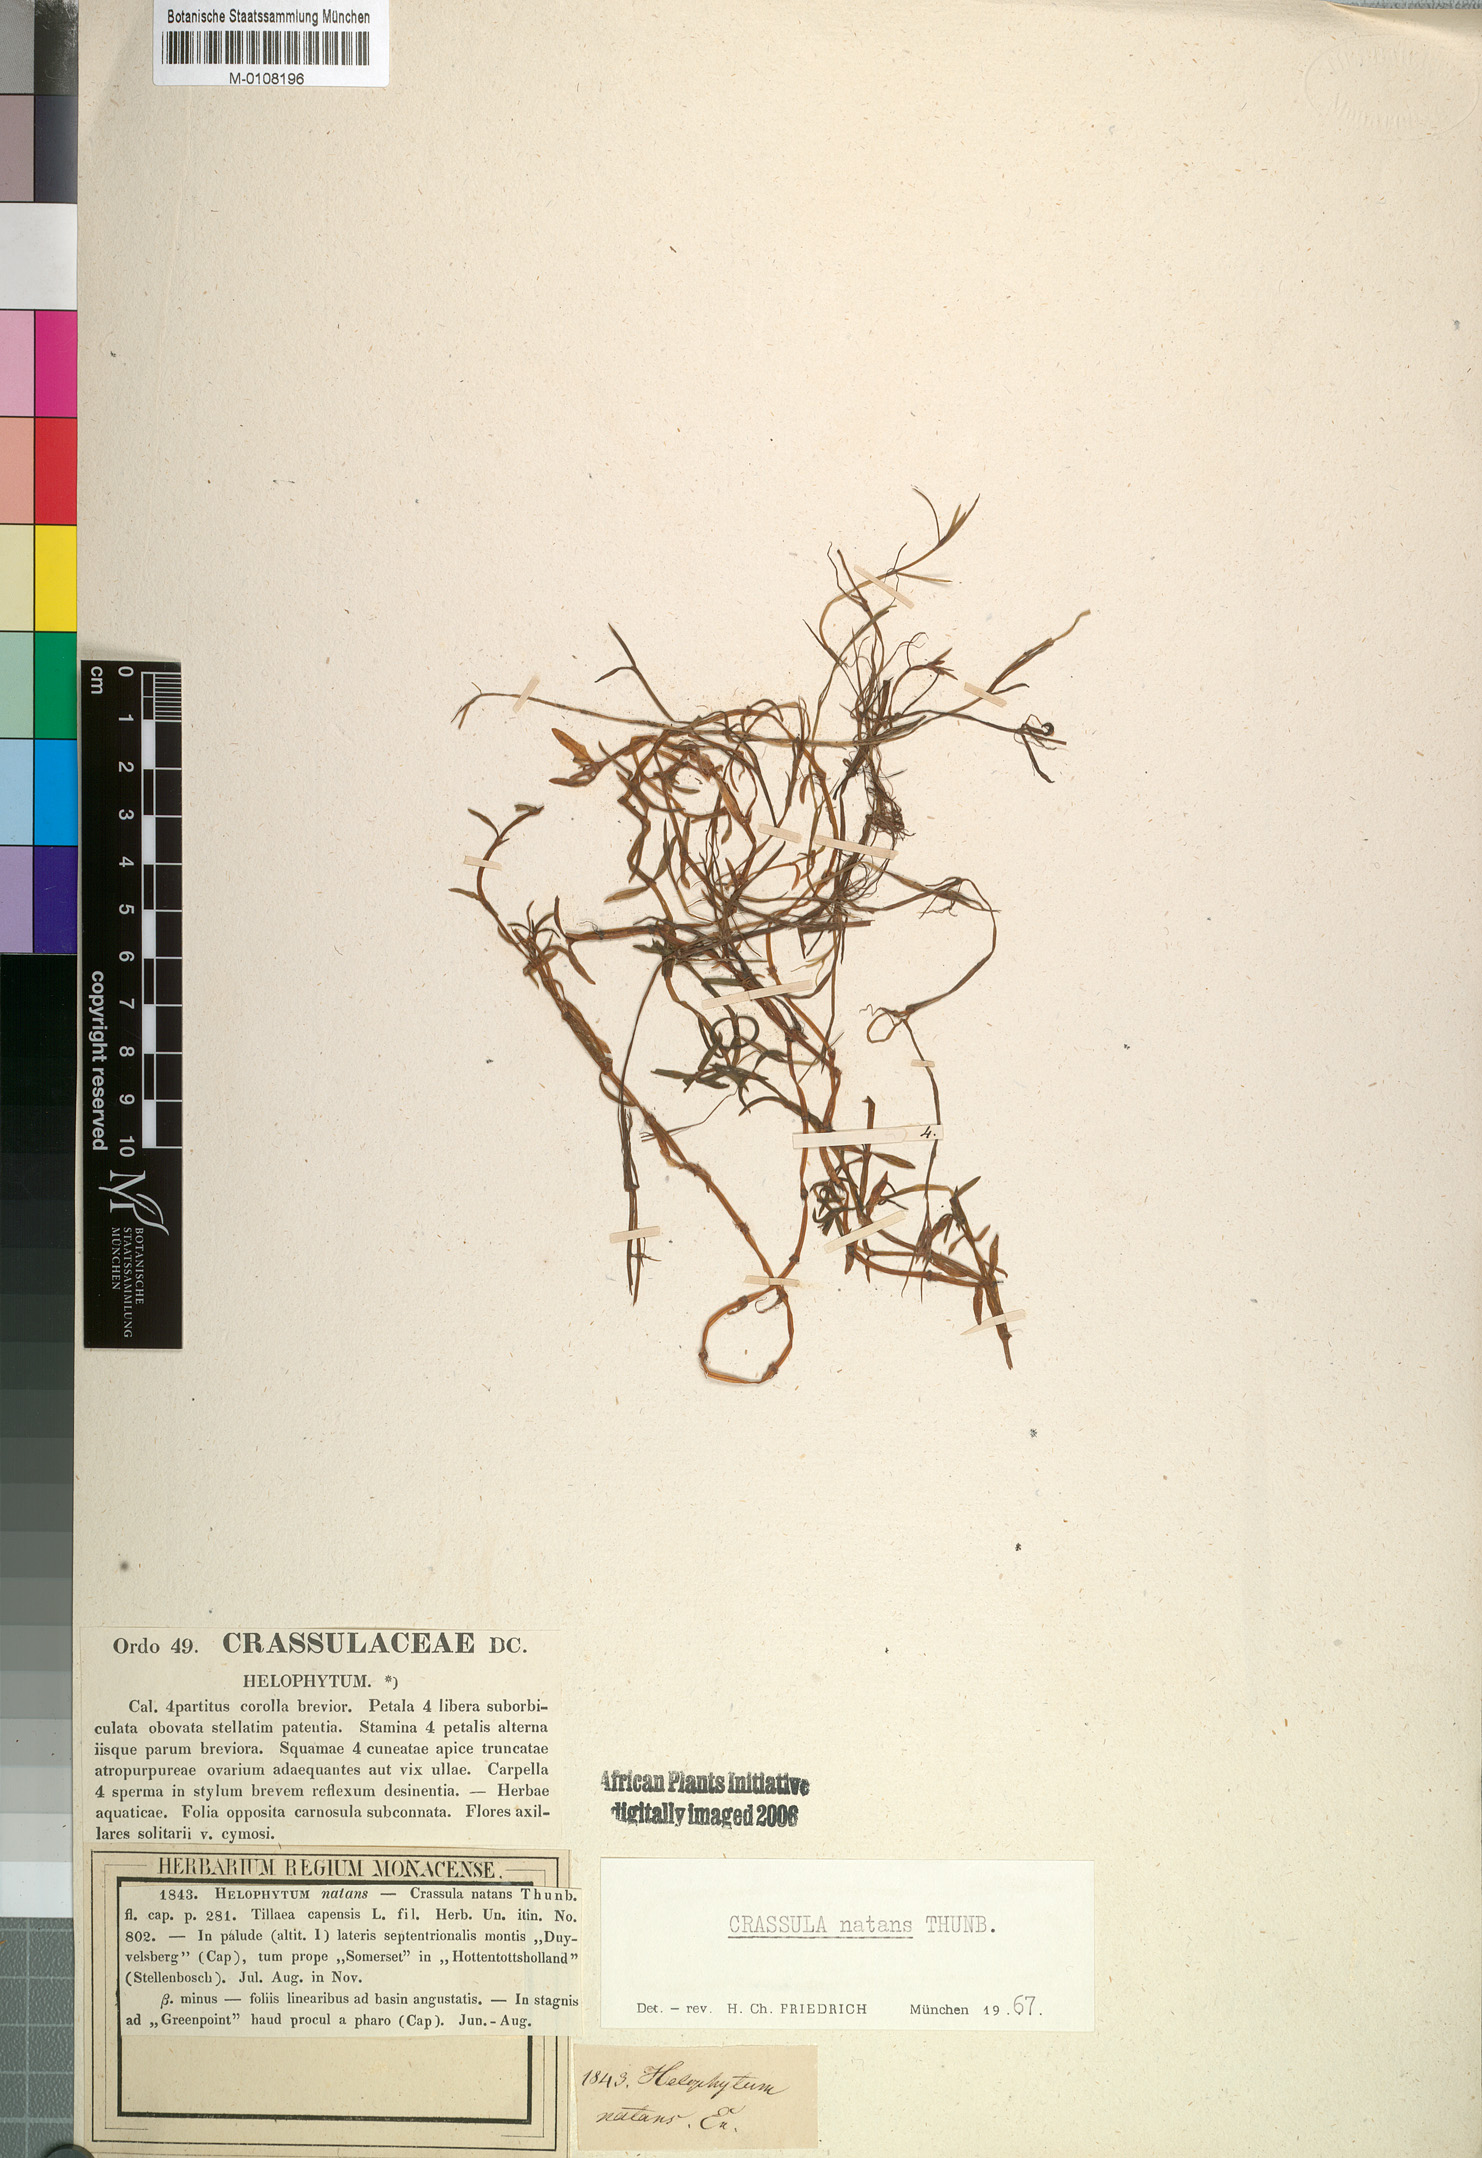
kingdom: Plantae
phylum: Tracheophyta
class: Magnoliopsida
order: Saxifragales
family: Crassulaceae
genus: Crassula
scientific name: Crassula natans
